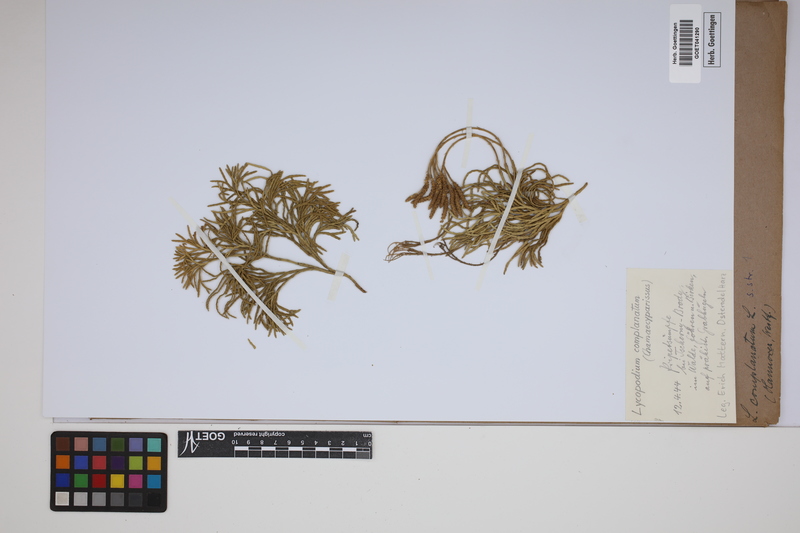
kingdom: Plantae
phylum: Tracheophyta
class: Lycopodiopsida
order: Lycopodiales
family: Lycopodiaceae
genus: Diphasiastrum
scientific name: Diphasiastrum complanatum
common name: Northern running-pine
